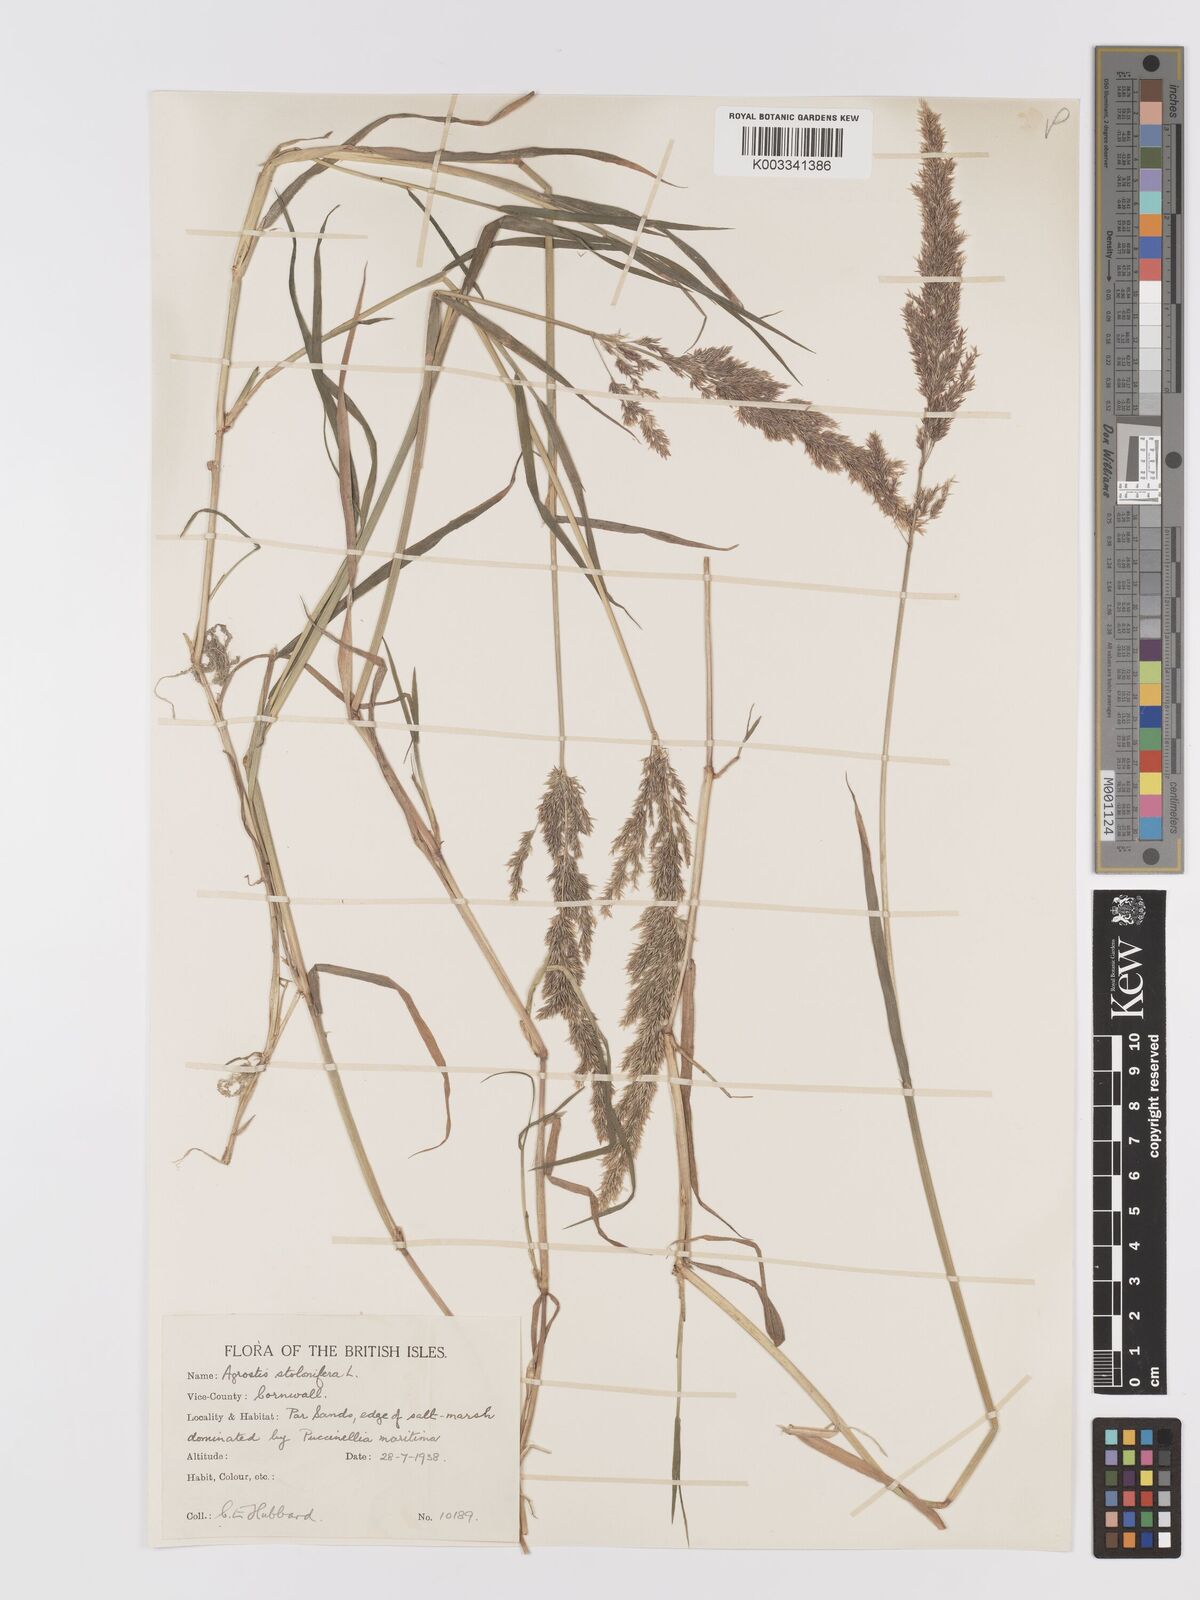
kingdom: Plantae
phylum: Tracheophyta
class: Liliopsida
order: Poales
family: Poaceae
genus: Agrostis
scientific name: Agrostis stolonifera
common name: Creeping bentgrass
